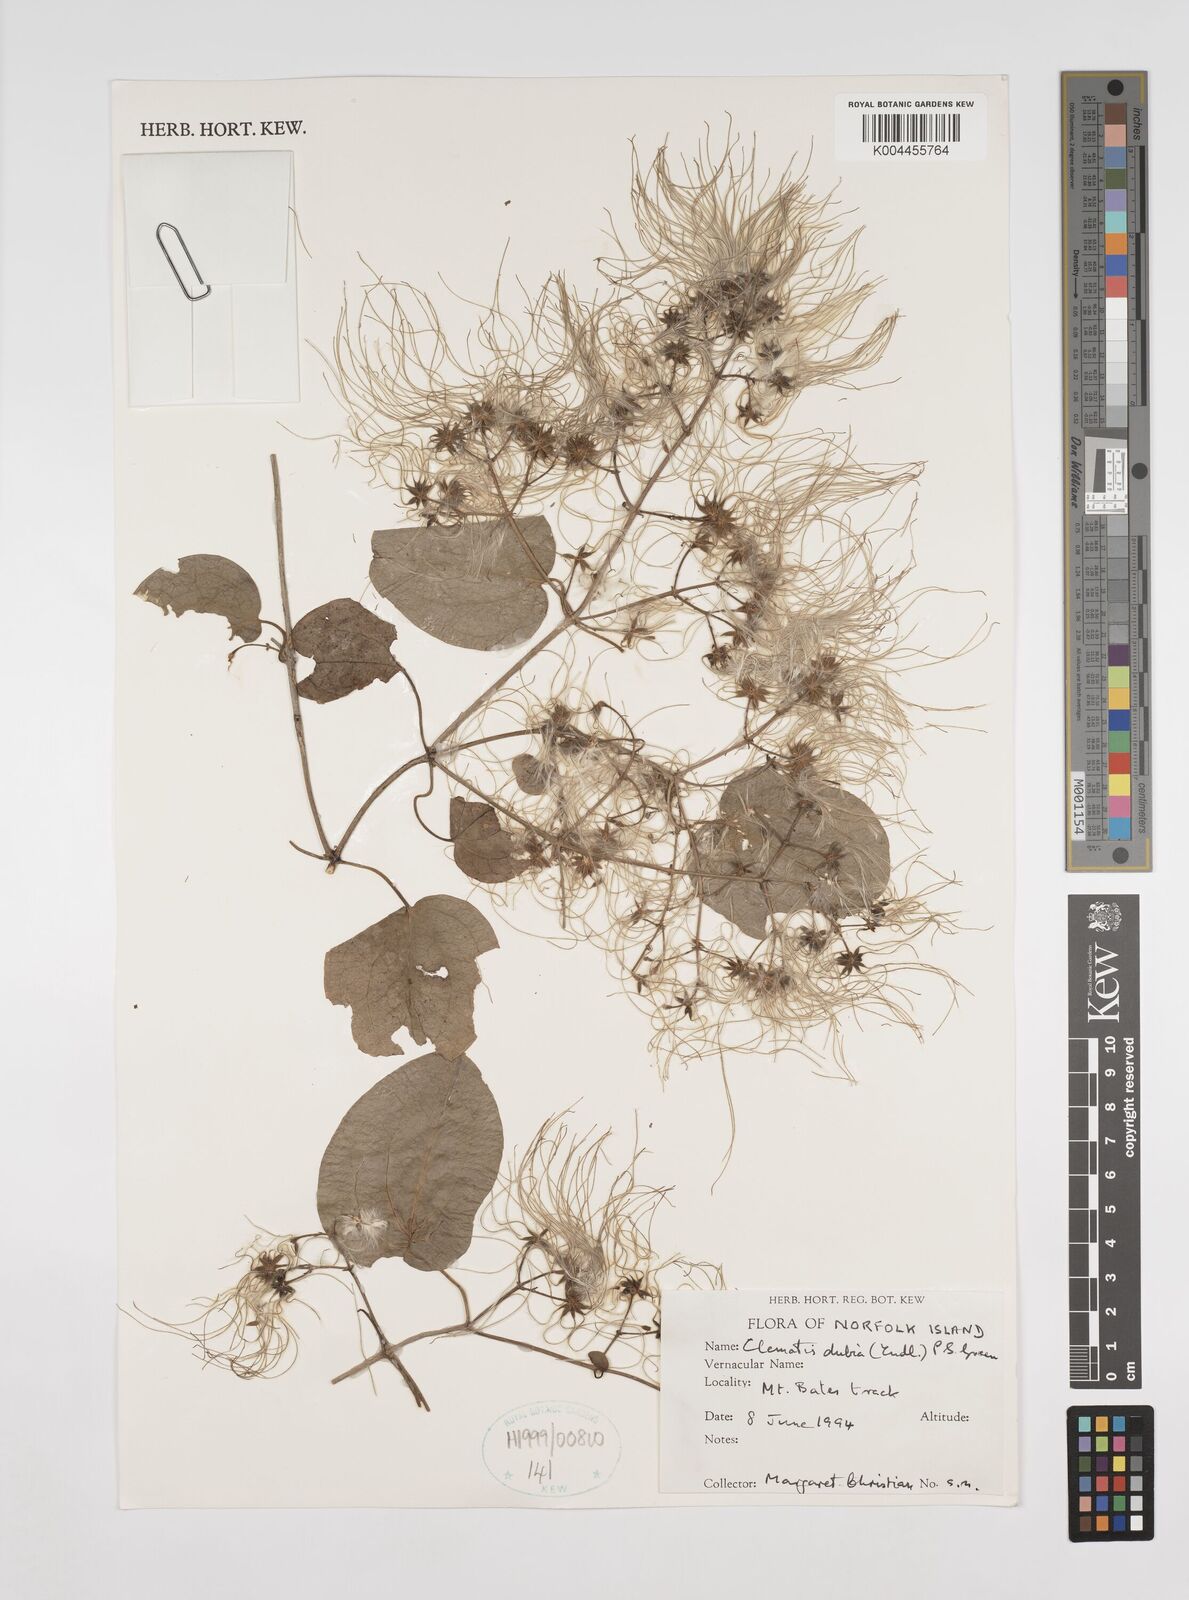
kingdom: Plantae
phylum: Tracheophyta
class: Magnoliopsida
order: Ranunculales
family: Ranunculaceae
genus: Clematis
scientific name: Clematis dubia
